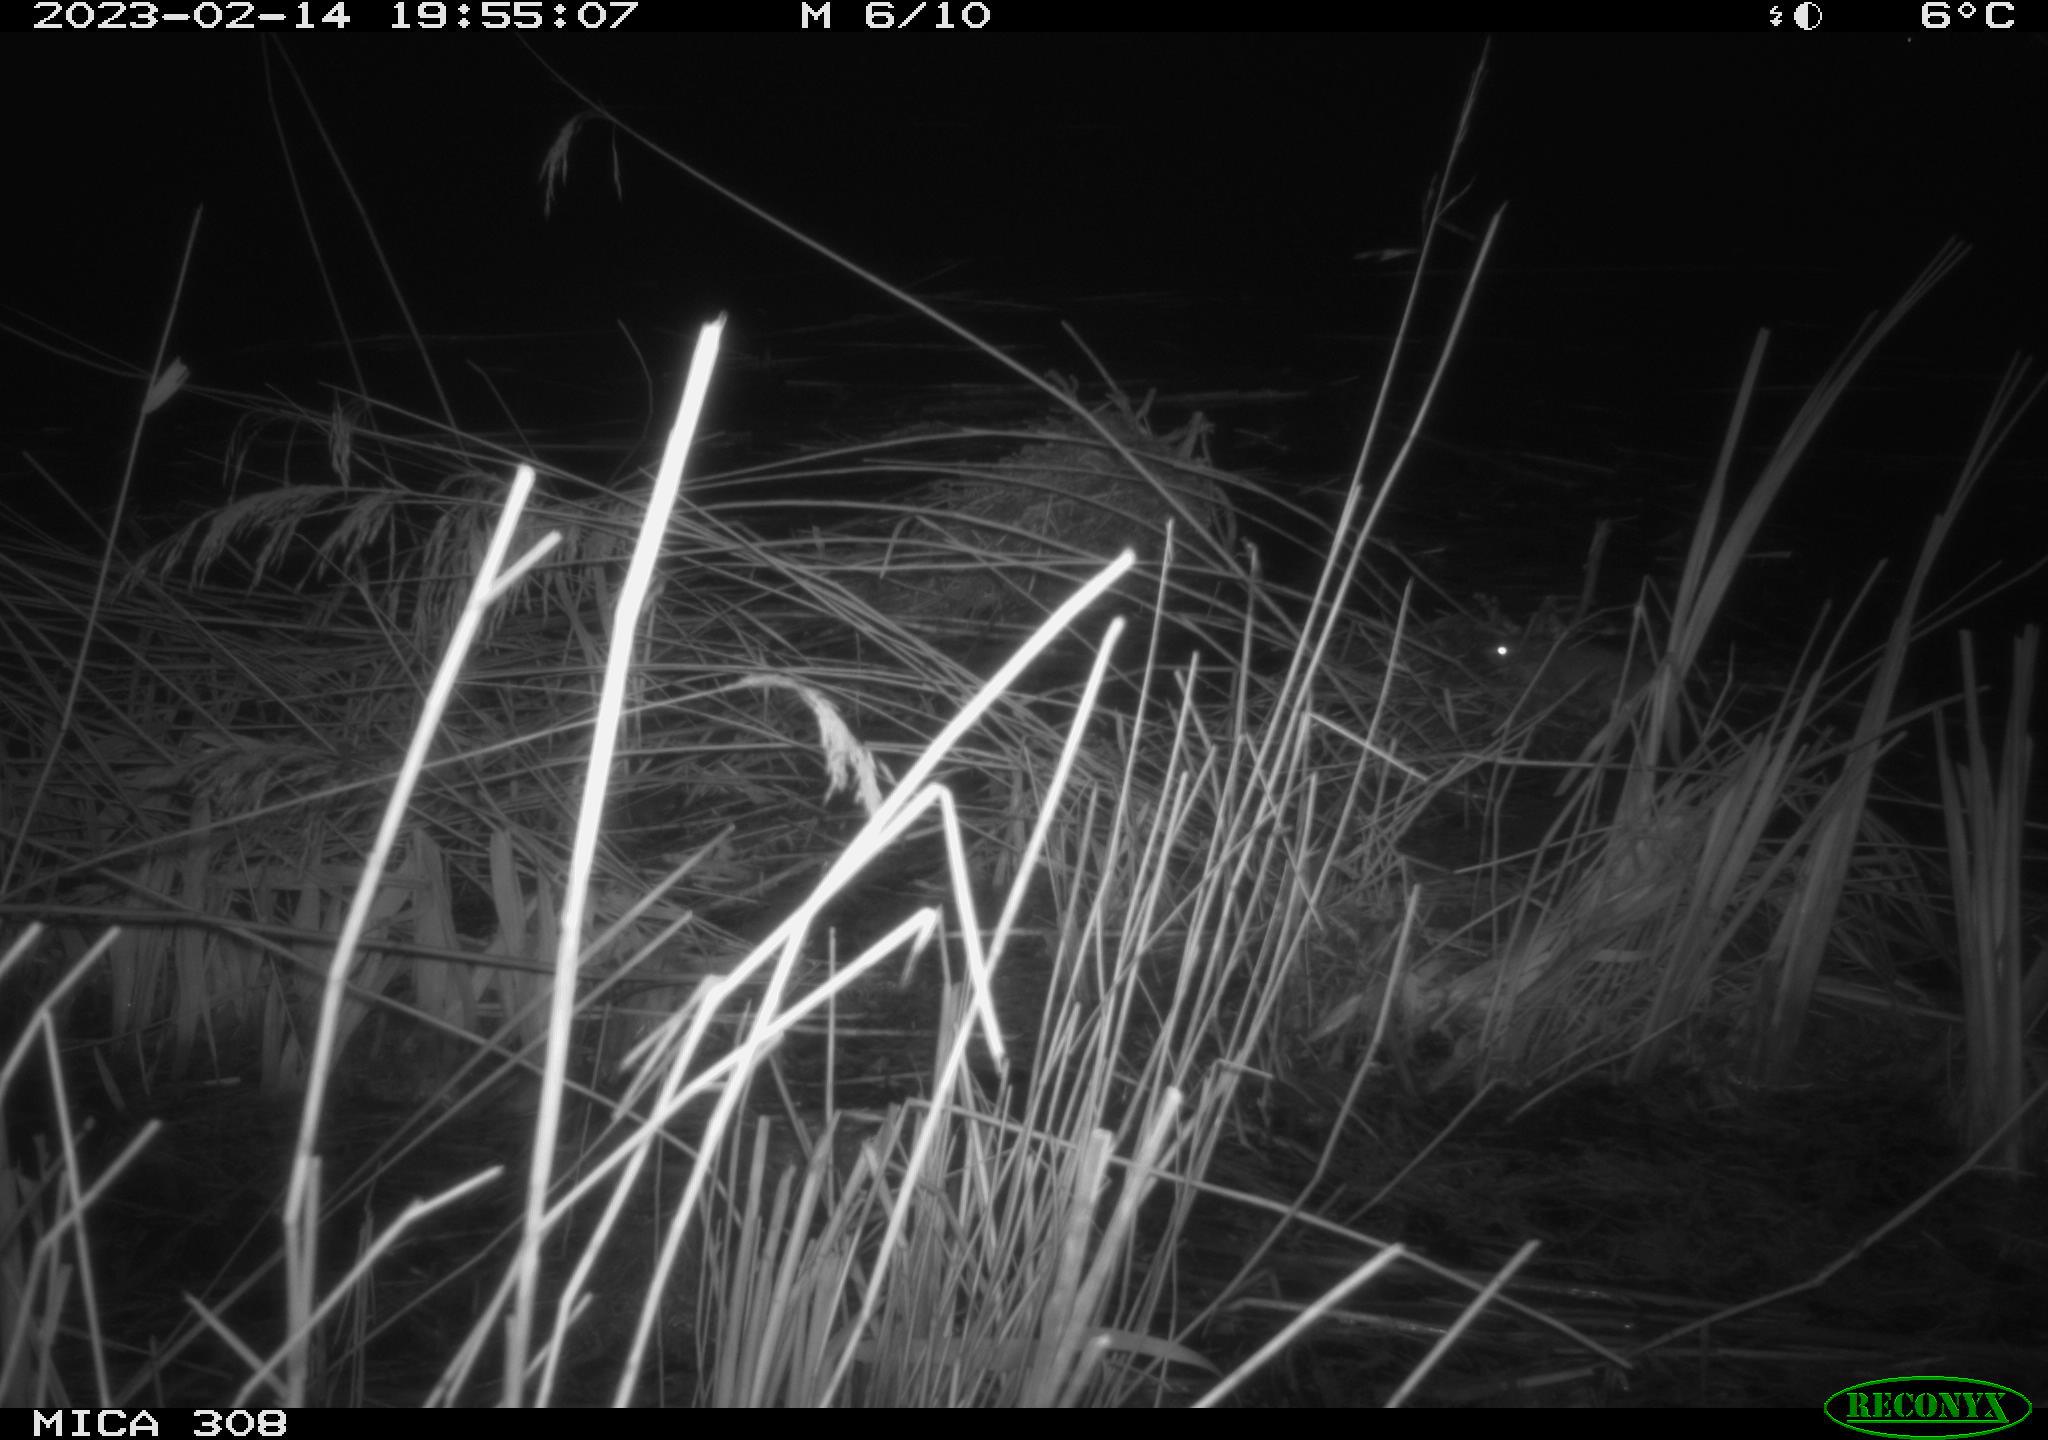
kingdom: Animalia
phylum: Chordata
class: Mammalia
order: Rodentia
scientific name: Rodentia
